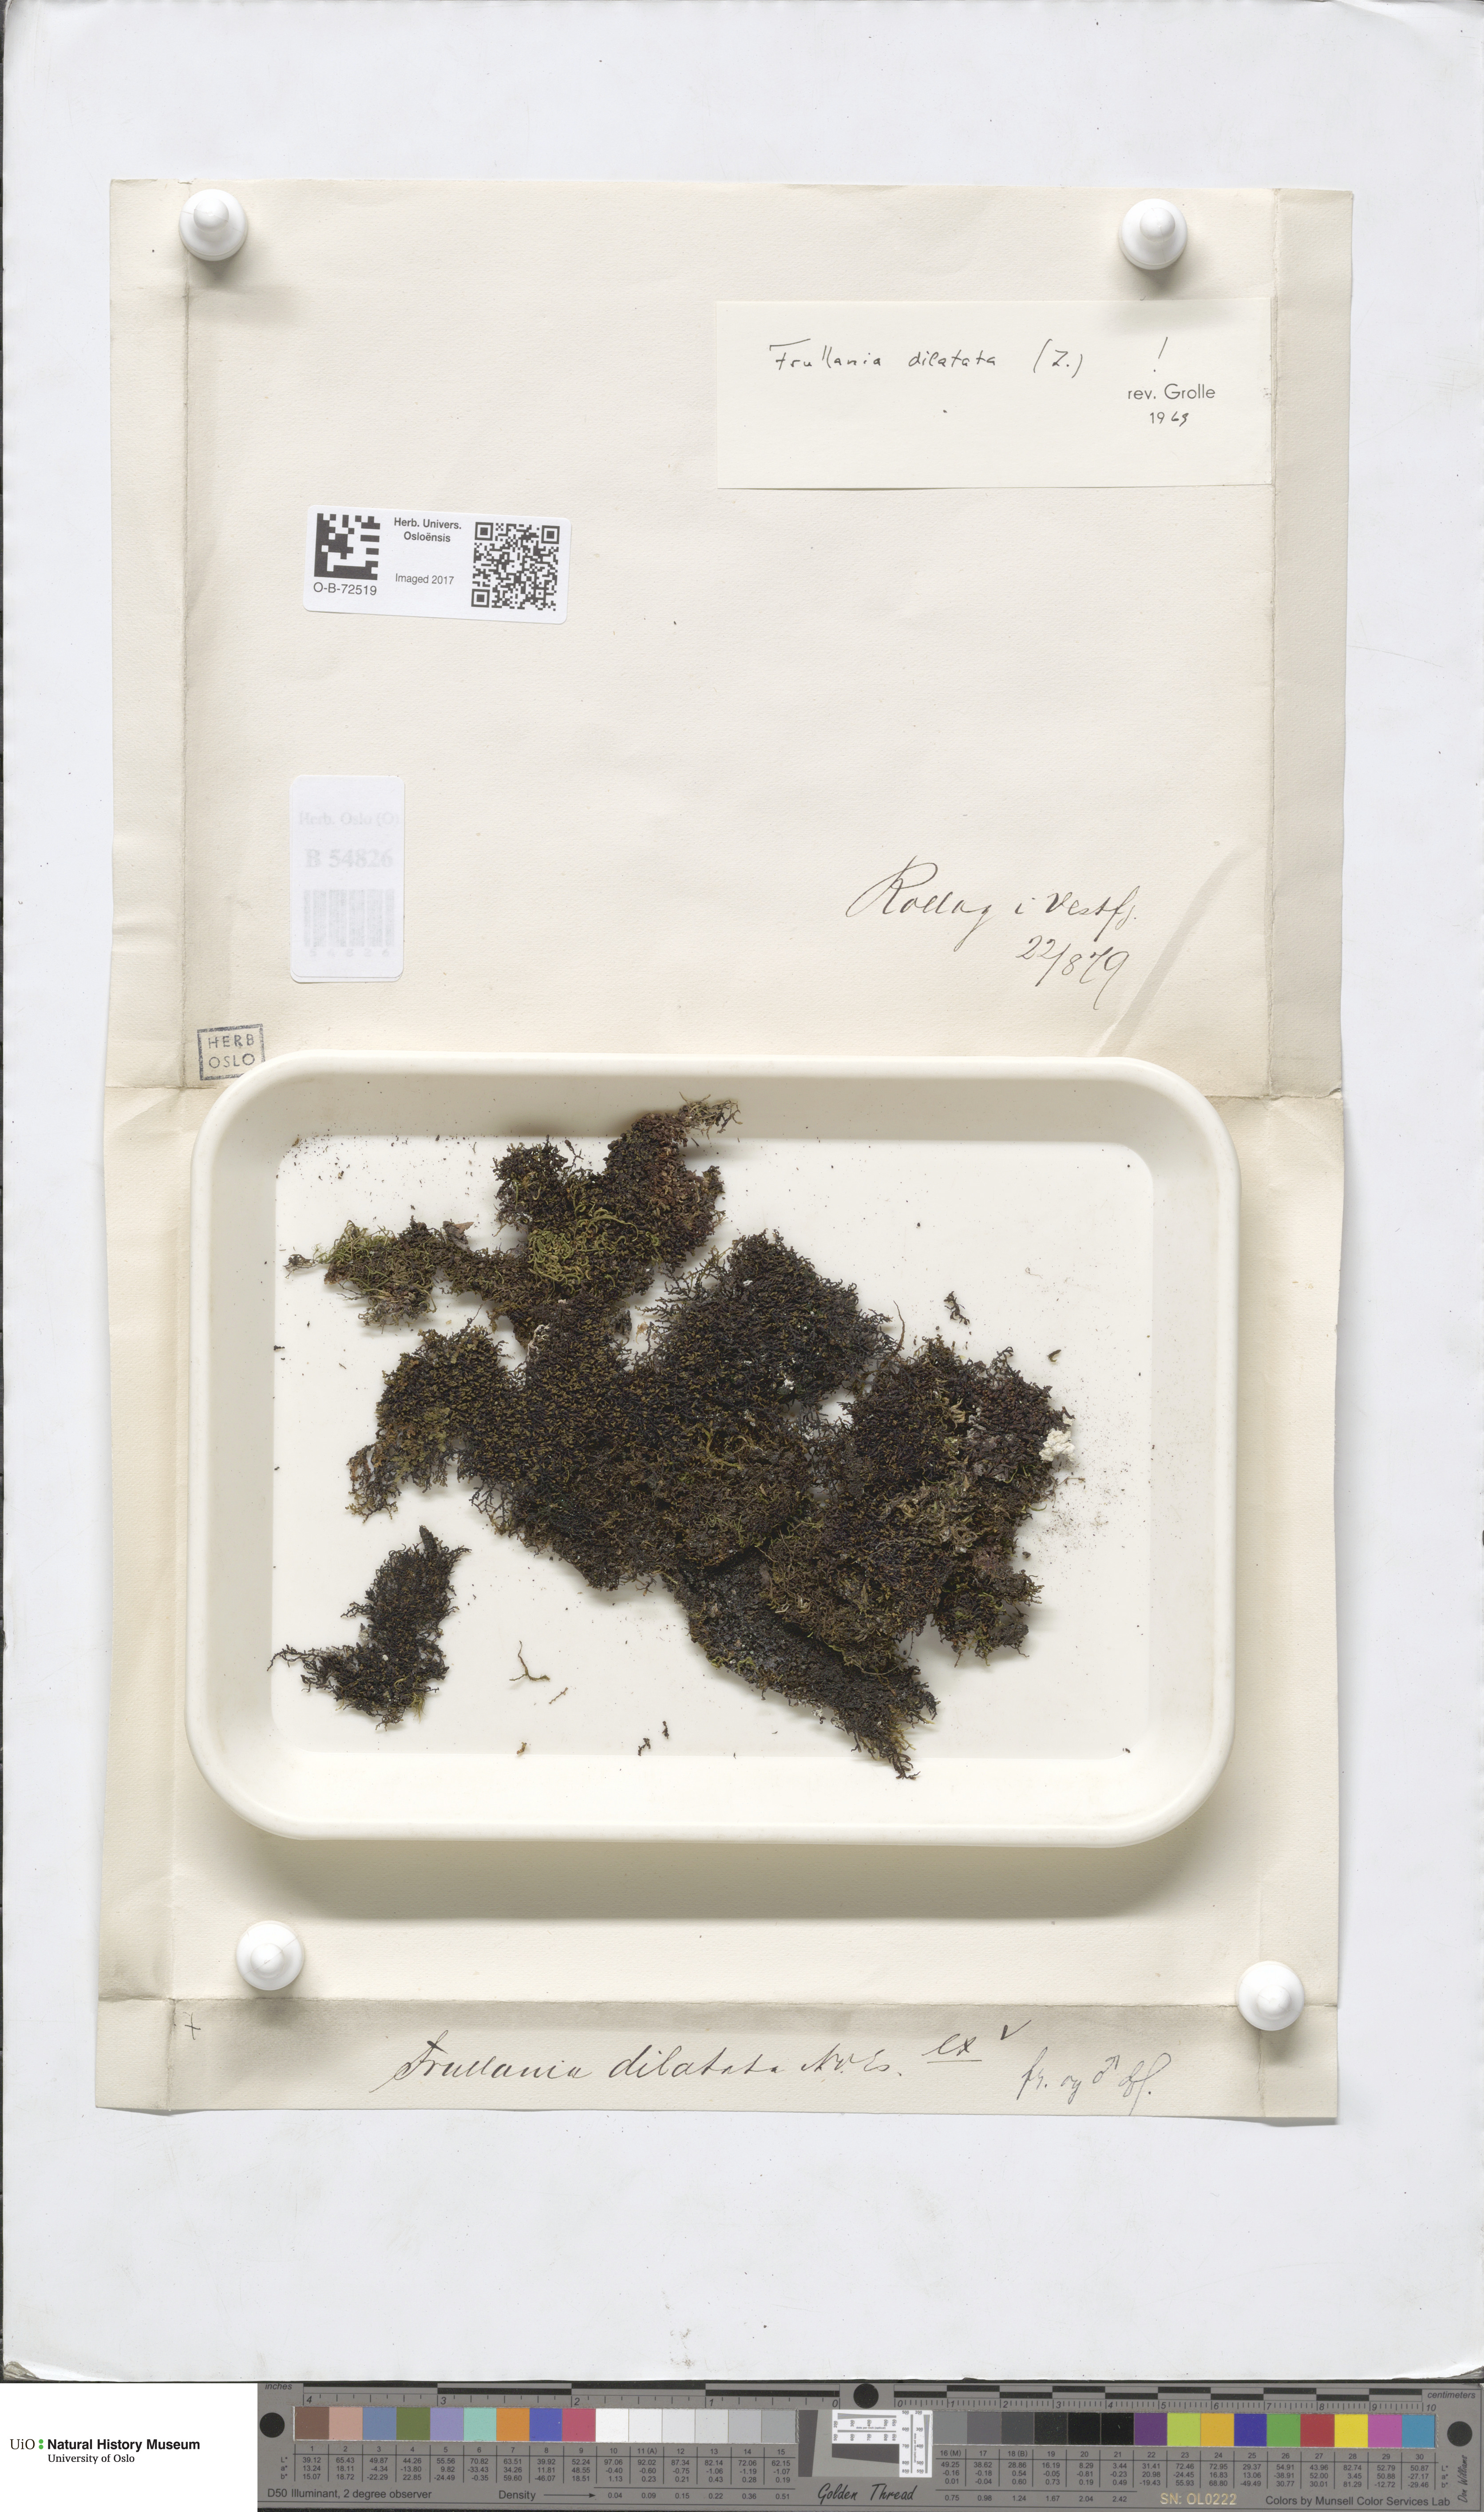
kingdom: Plantae
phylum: Marchantiophyta
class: Jungermanniopsida
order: Porellales
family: Frullaniaceae
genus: Frullania
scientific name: Frullania dilatata
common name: Dilated scalewort
